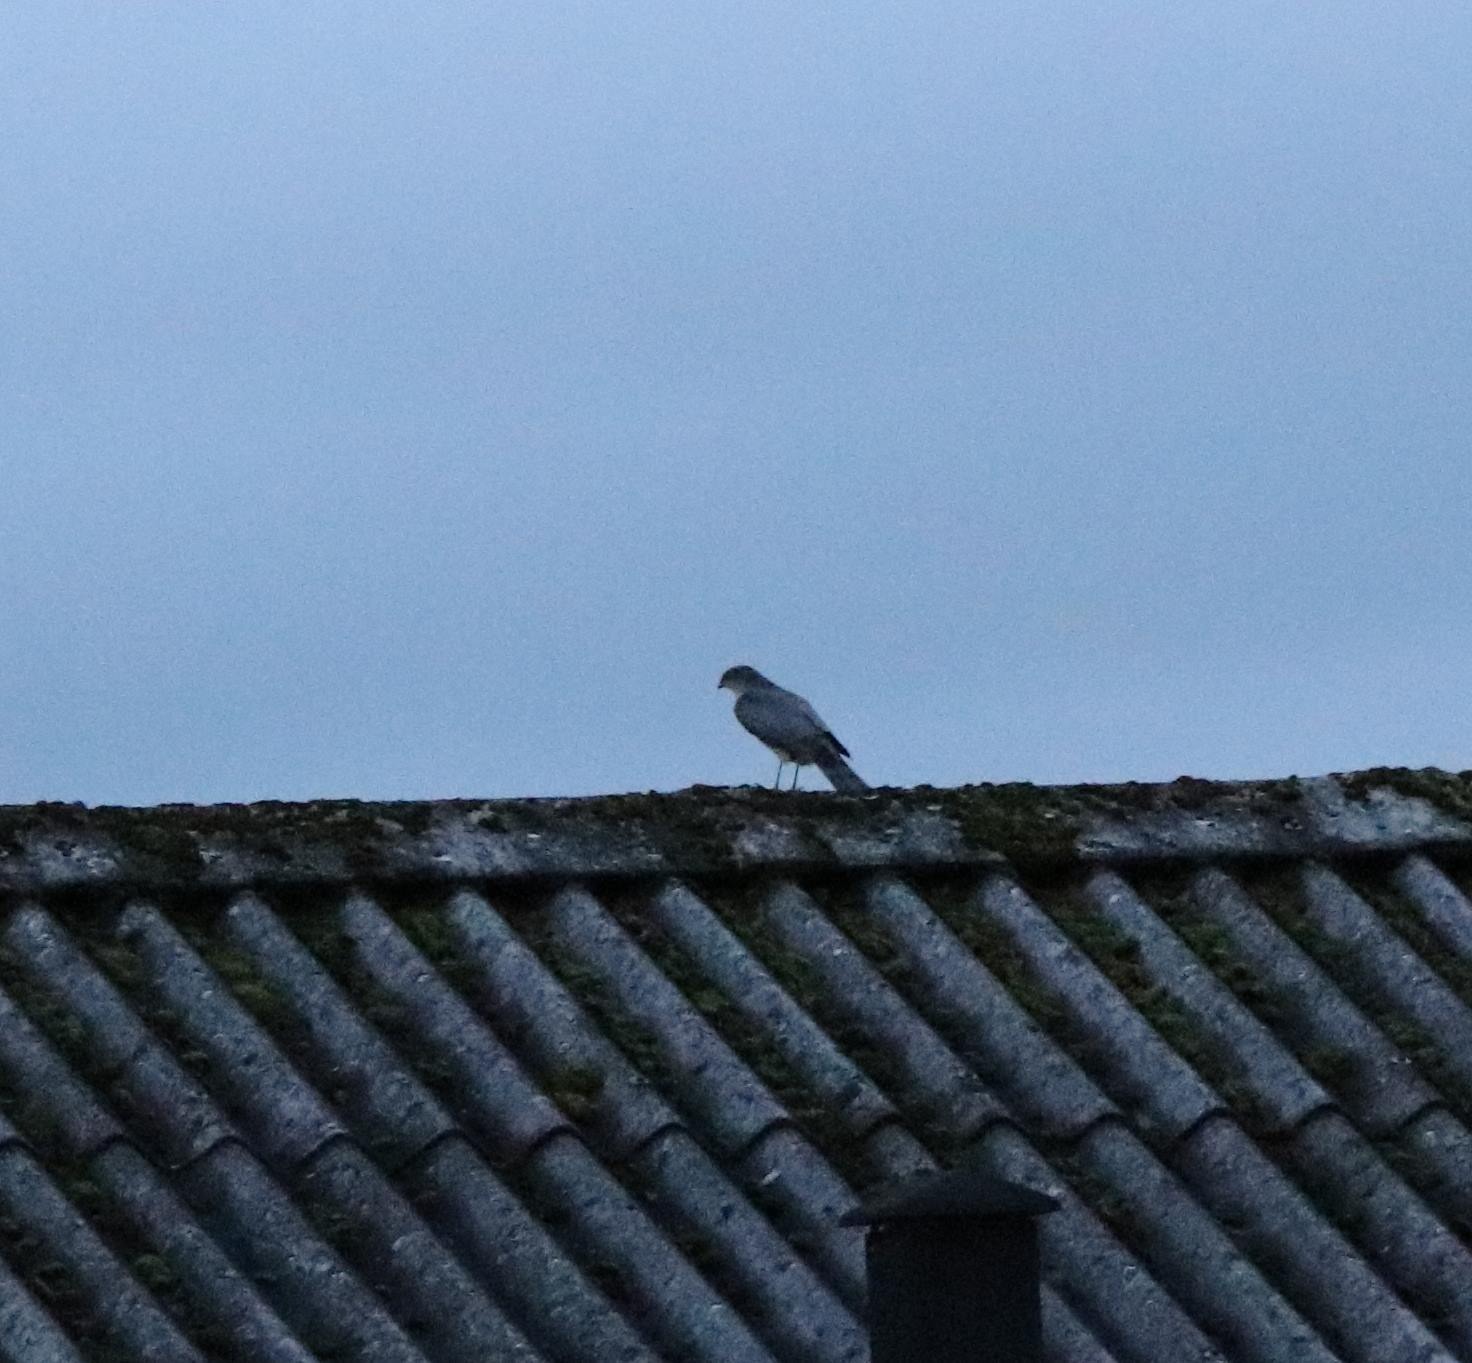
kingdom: Animalia
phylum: Chordata
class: Aves
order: Accipitriformes
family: Accipitridae
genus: Accipiter
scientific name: Accipiter nisus
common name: Spurvehøg
